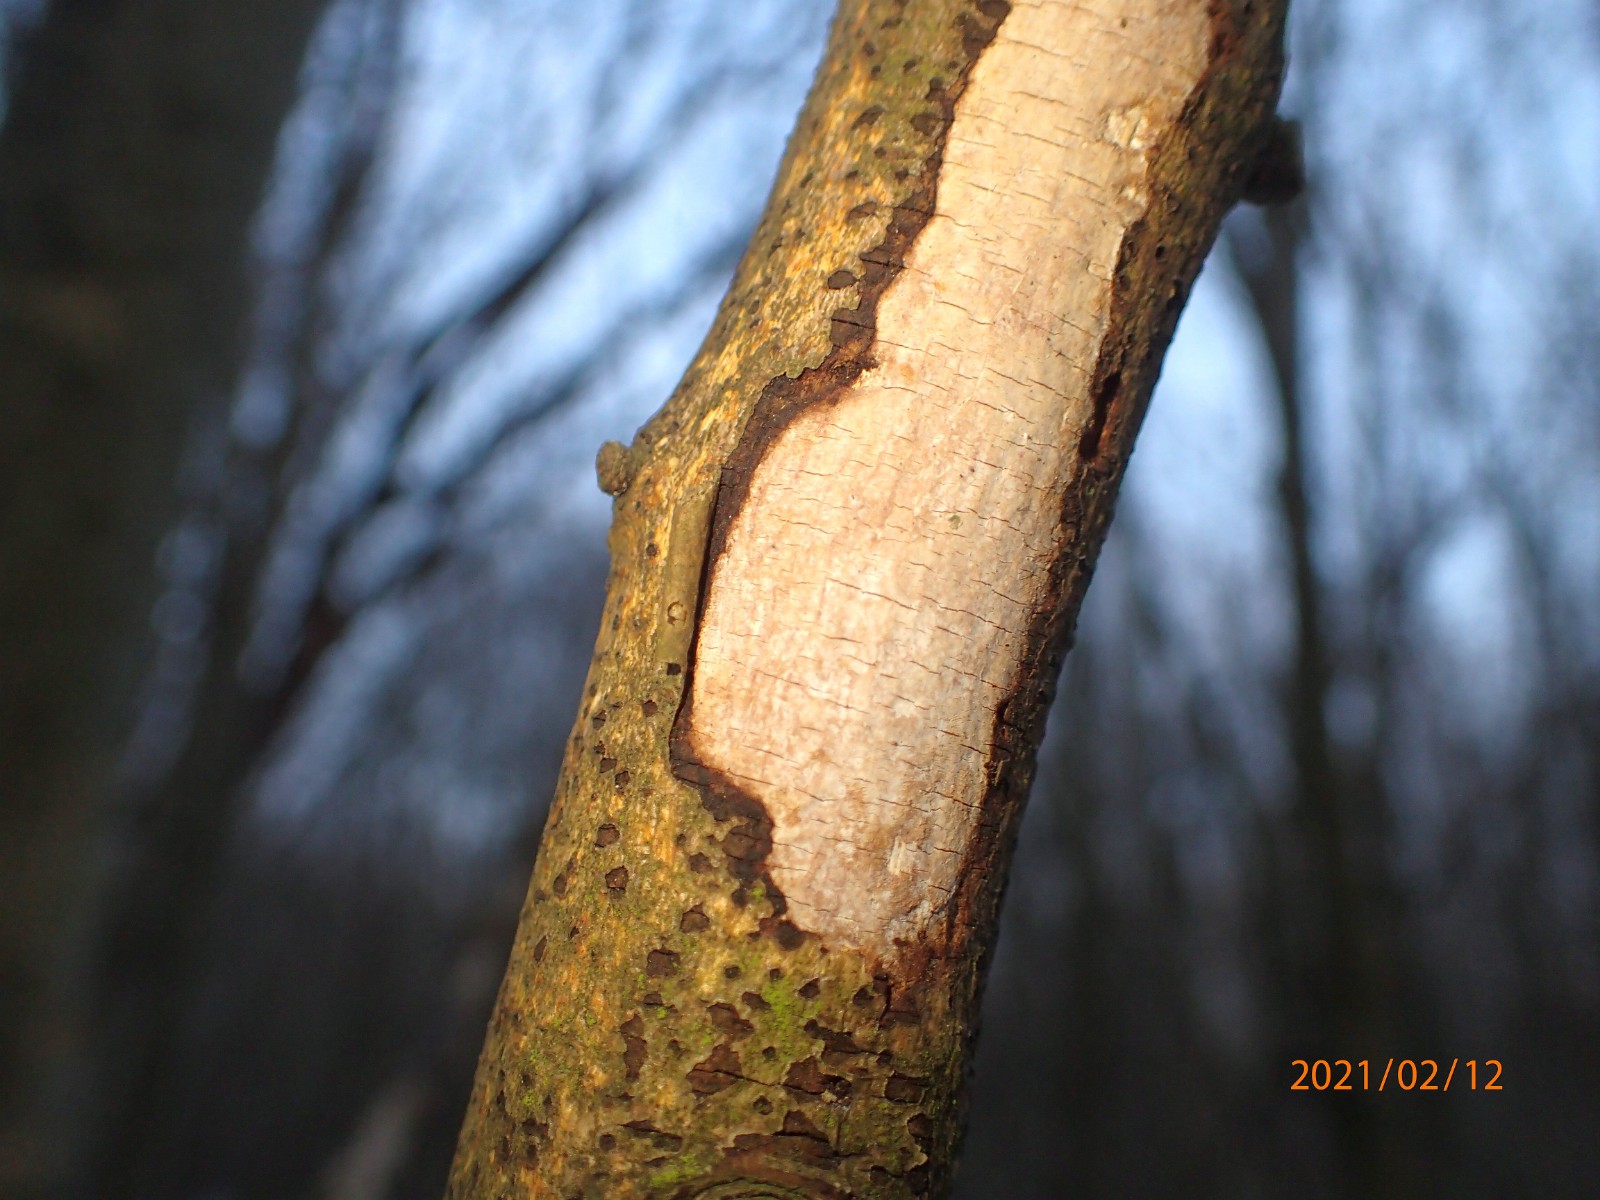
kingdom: Fungi
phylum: Basidiomycota
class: Agaricomycetes
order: Corticiales
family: Vuilleminiaceae
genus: Vuilleminia
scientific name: Vuilleminia coryli
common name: hassel-barksprænger
